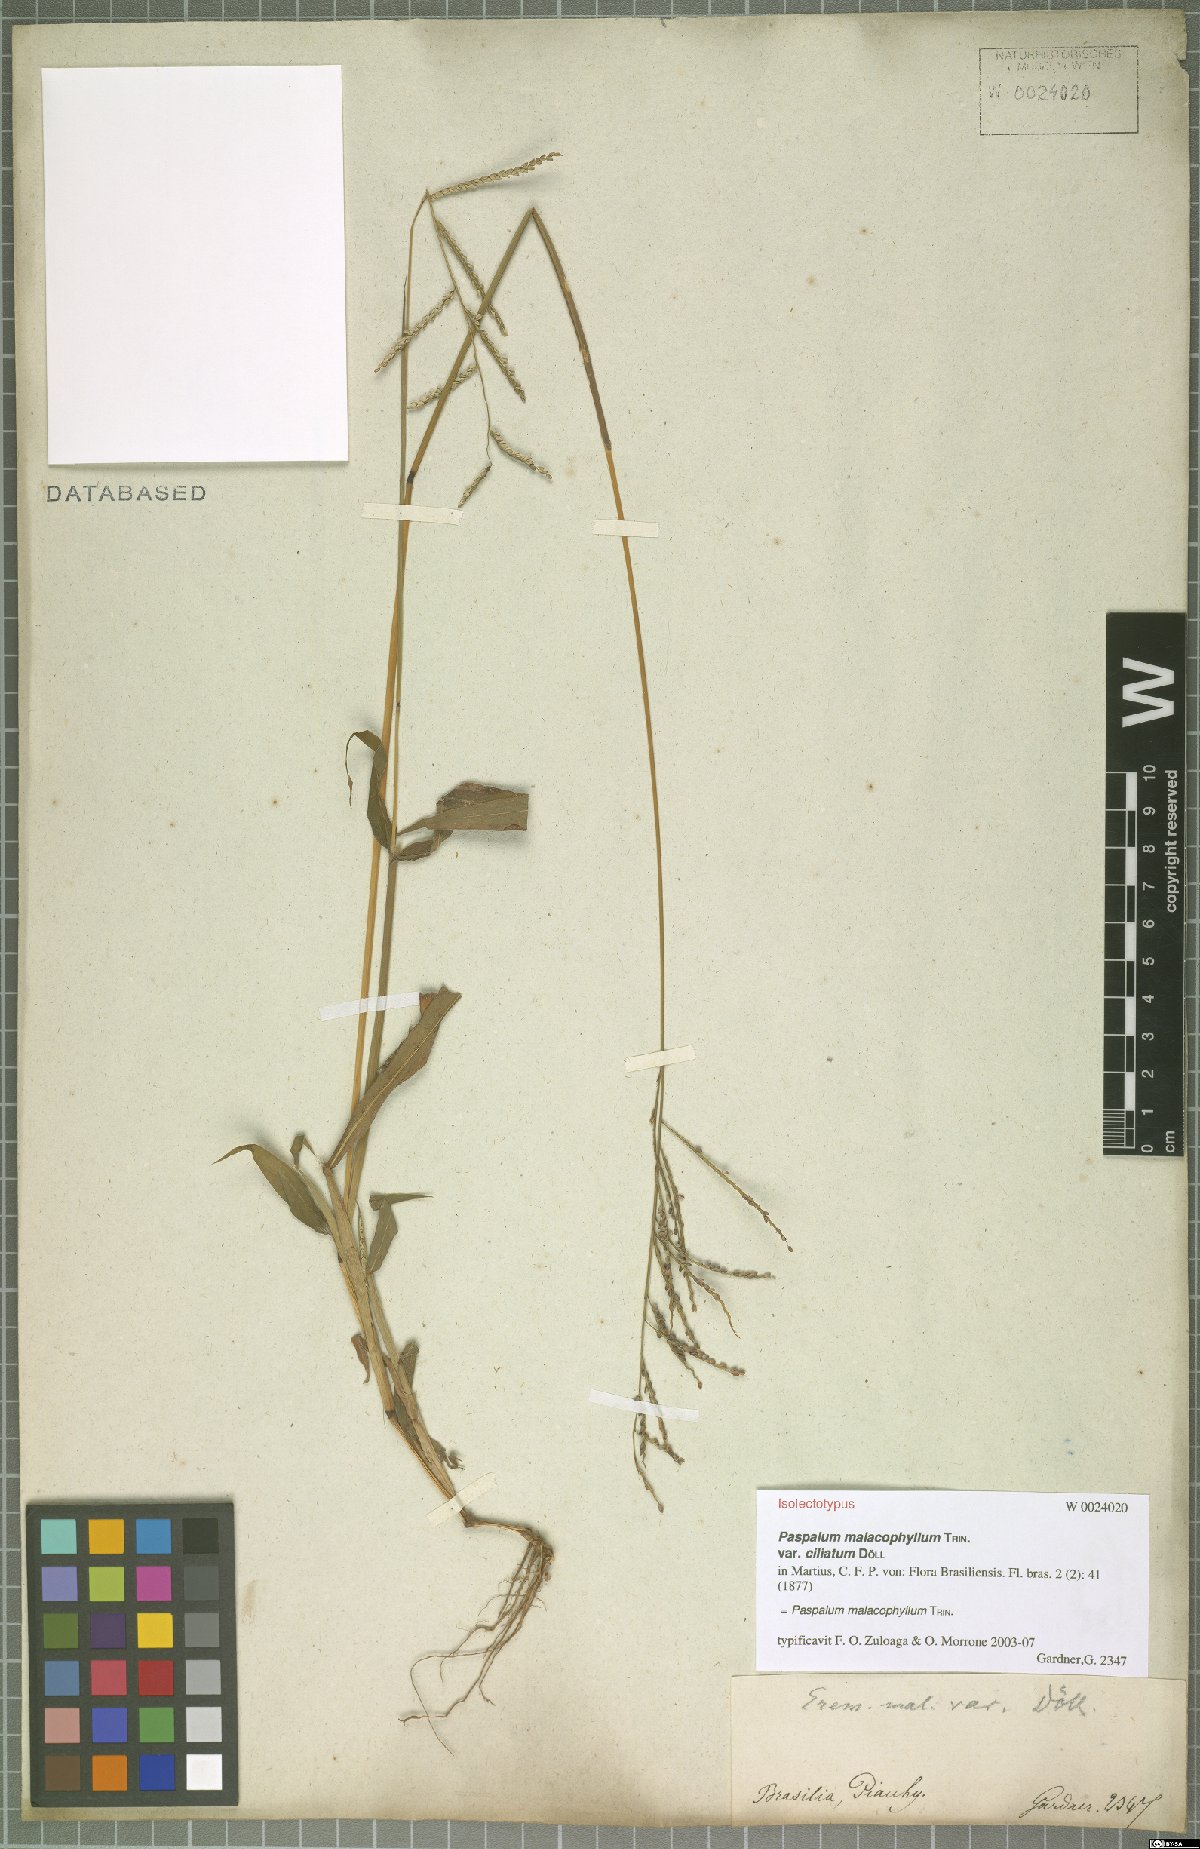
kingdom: Plantae
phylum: Tracheophyta
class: Liliopsida
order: Poales
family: Poaceae
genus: Paspalum
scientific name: Paspalum malacophyllum
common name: Ribbed paspalum
